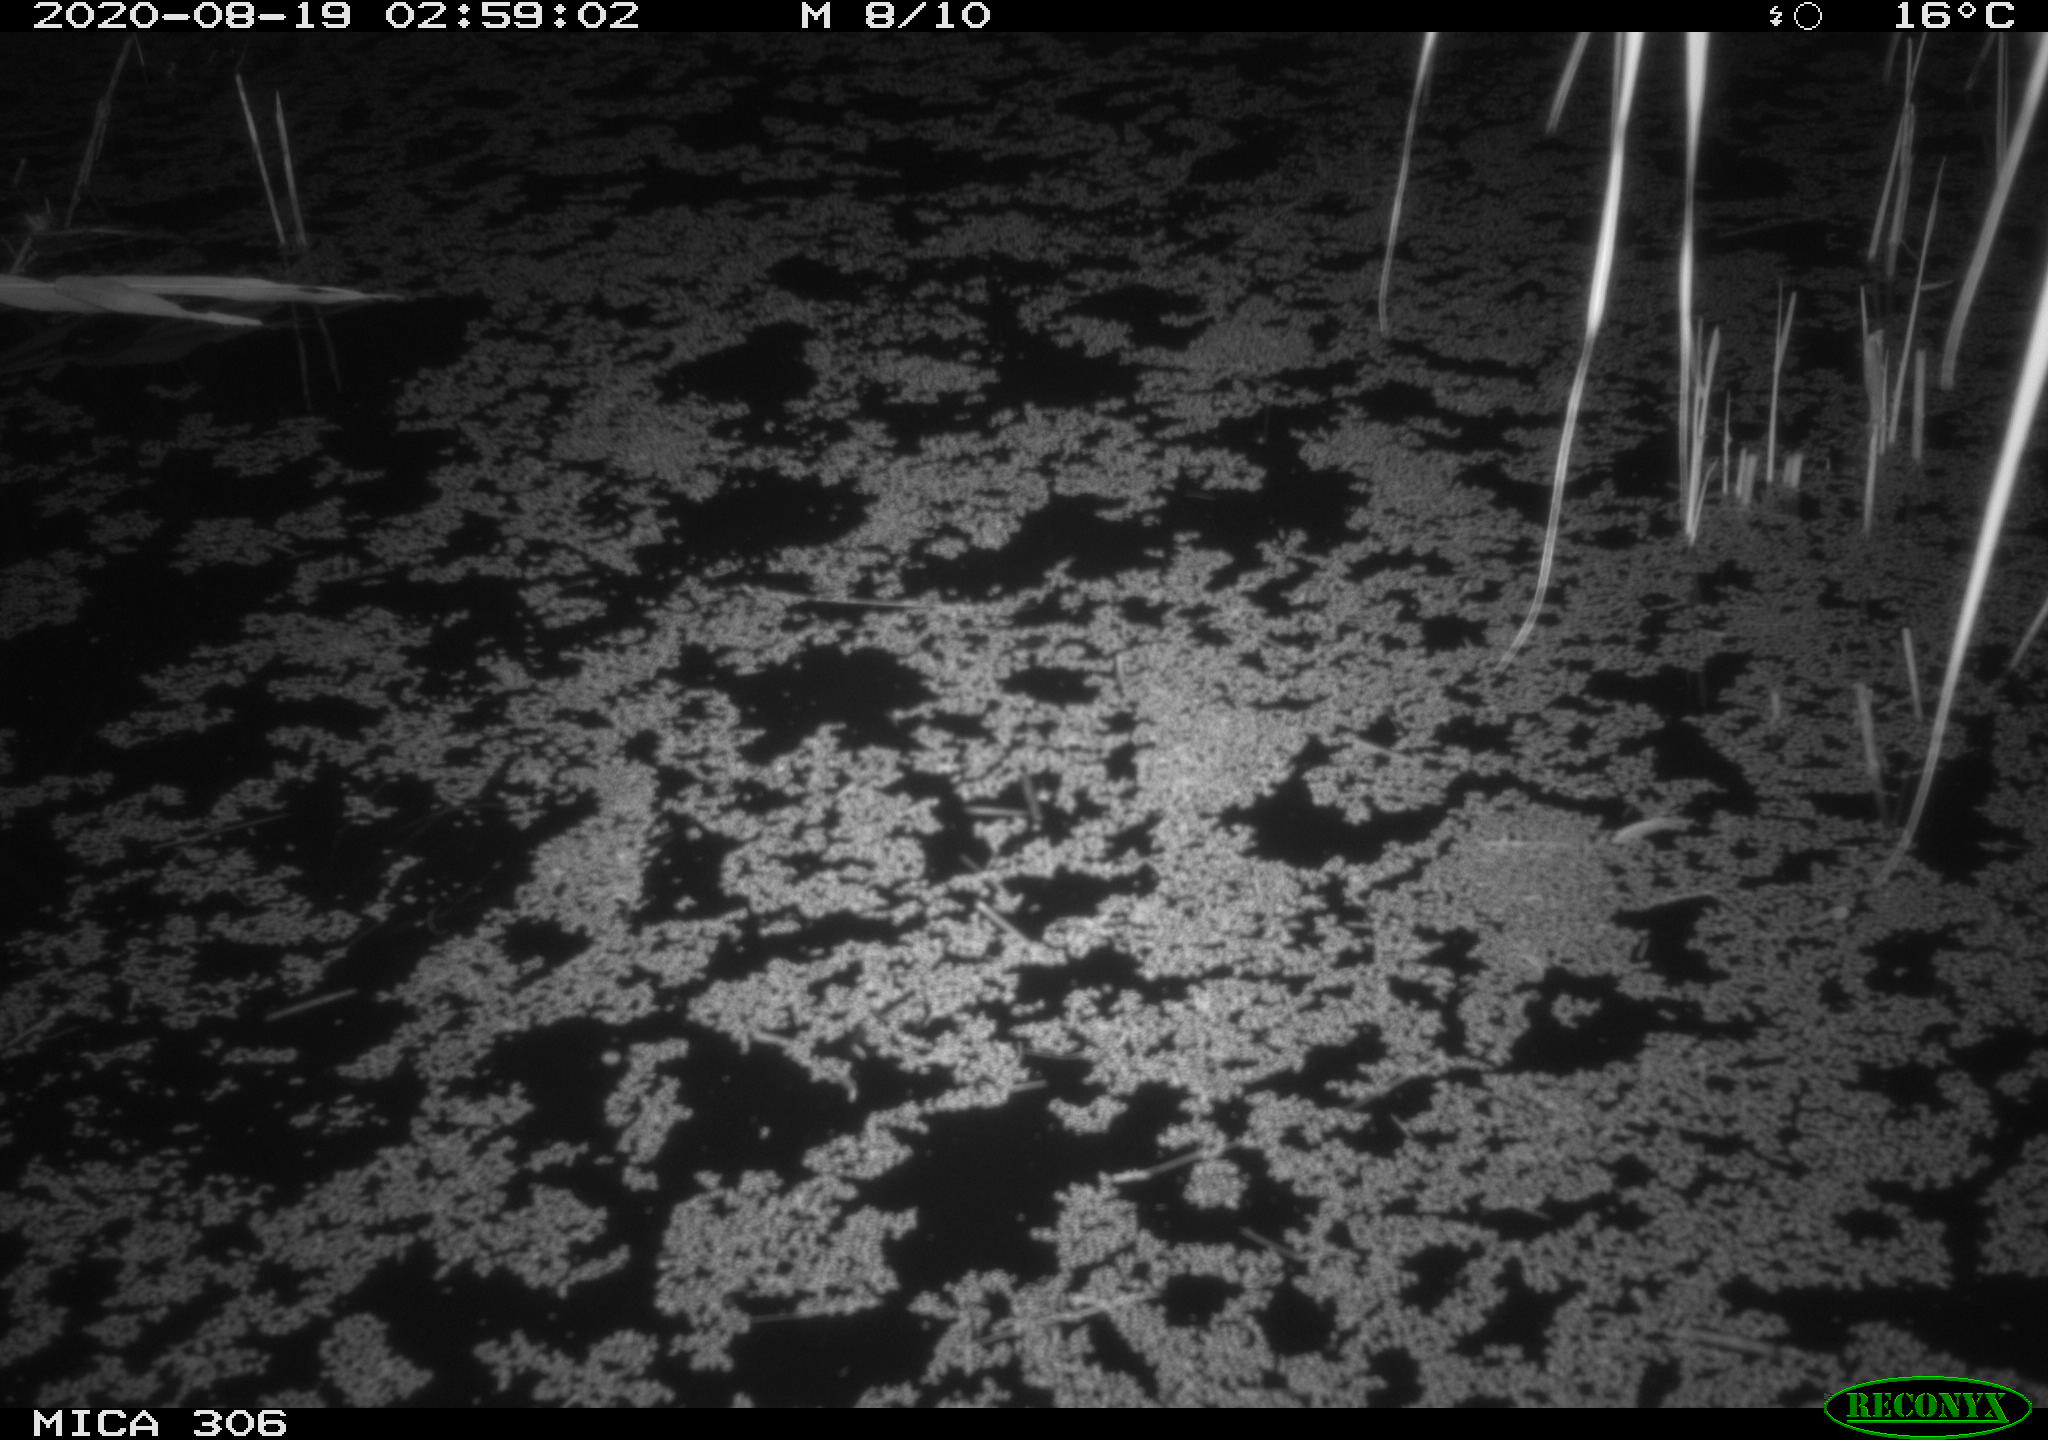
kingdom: Animalia
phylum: Chordata
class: Mammalia
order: Rodentia
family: Muridae
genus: Rattus
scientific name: Rattus norvegicus
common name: Brown rat
